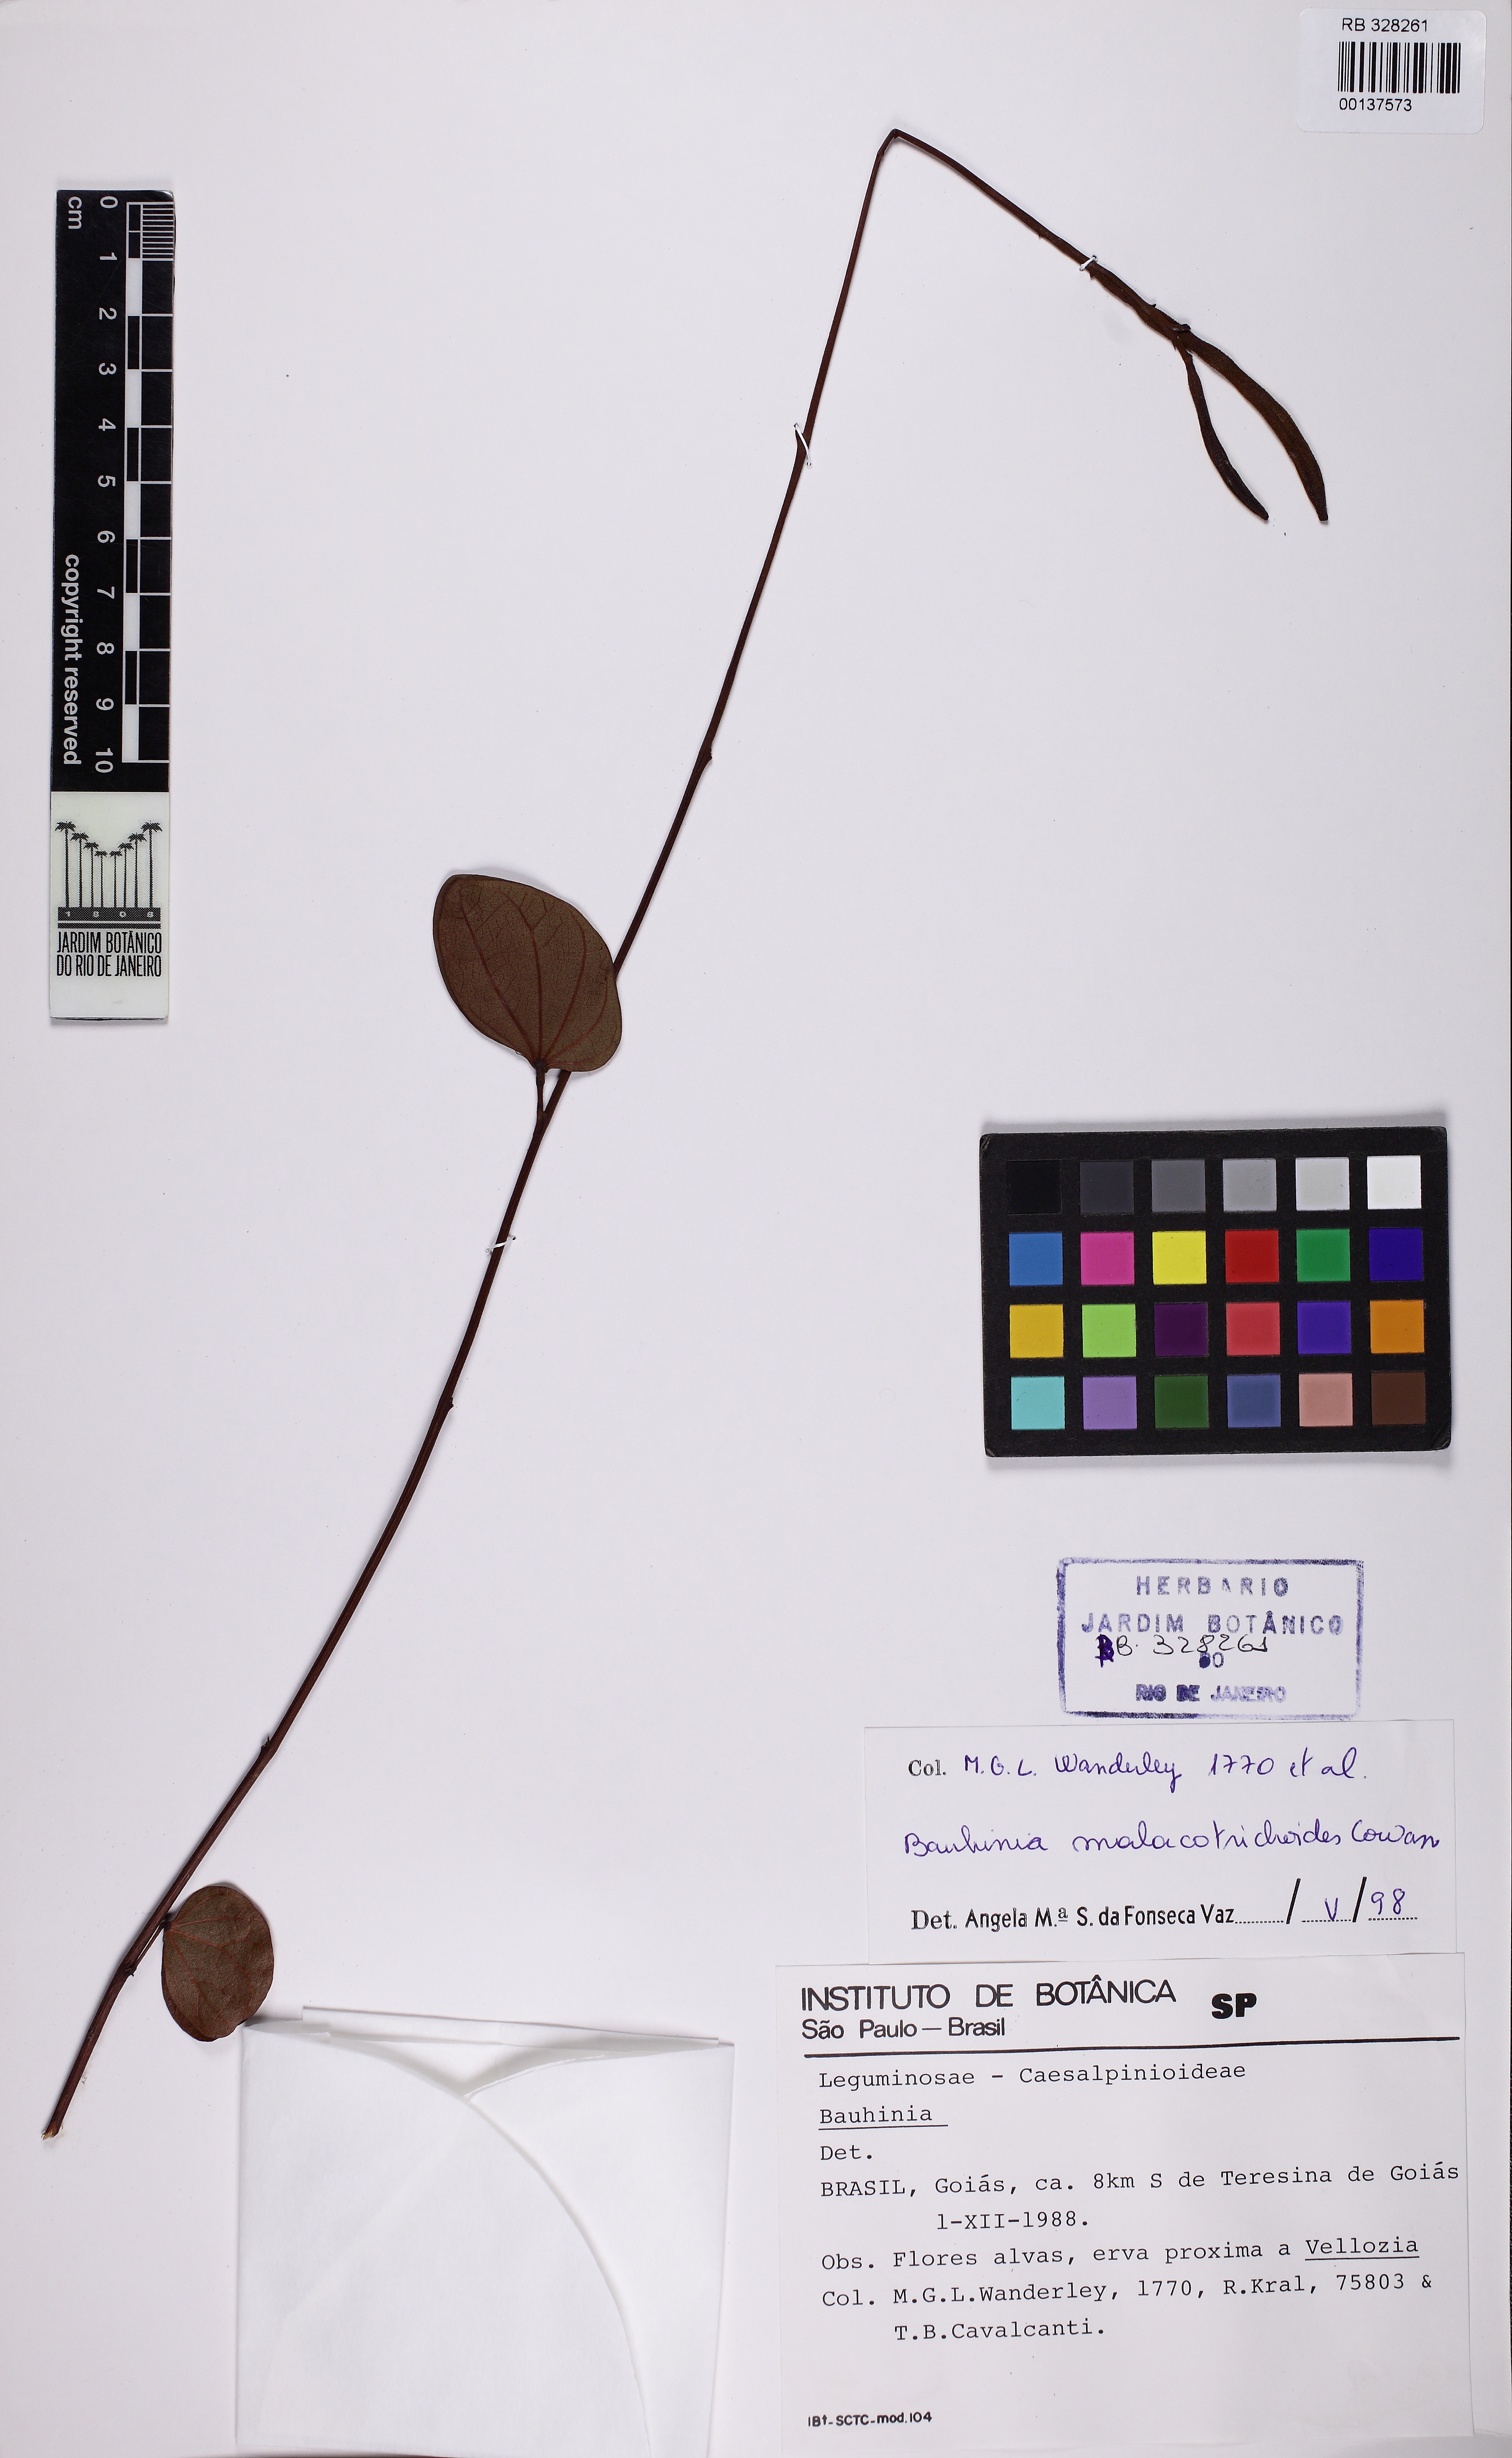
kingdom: Plantae
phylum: Tracheophyta
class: Magnoliopsida
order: Fabales
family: Fabaceae
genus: Bauhinia
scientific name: Bauhinia malacotrichoides
